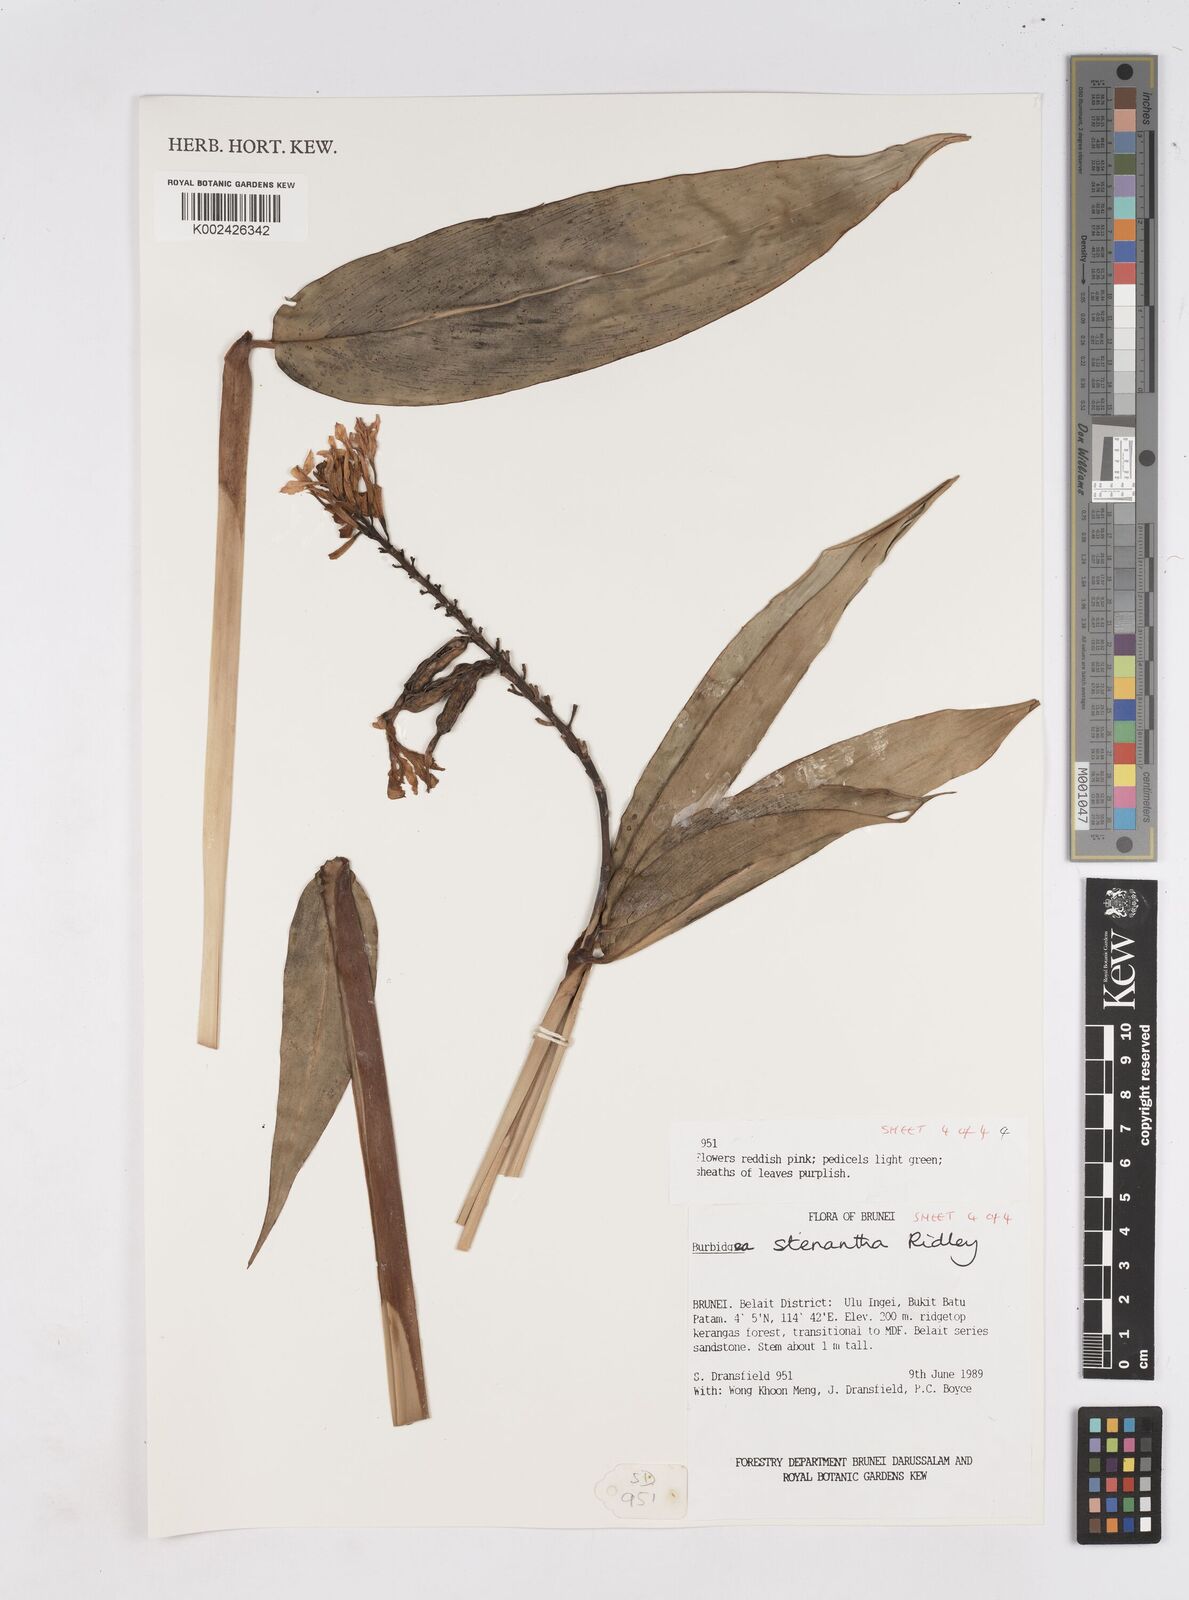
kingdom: Plantae
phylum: Tracheophyta
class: Liliopsida
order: Zingiberales
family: Zingiberaceae
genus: Burbidgea
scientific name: Burbidgea stenantha
